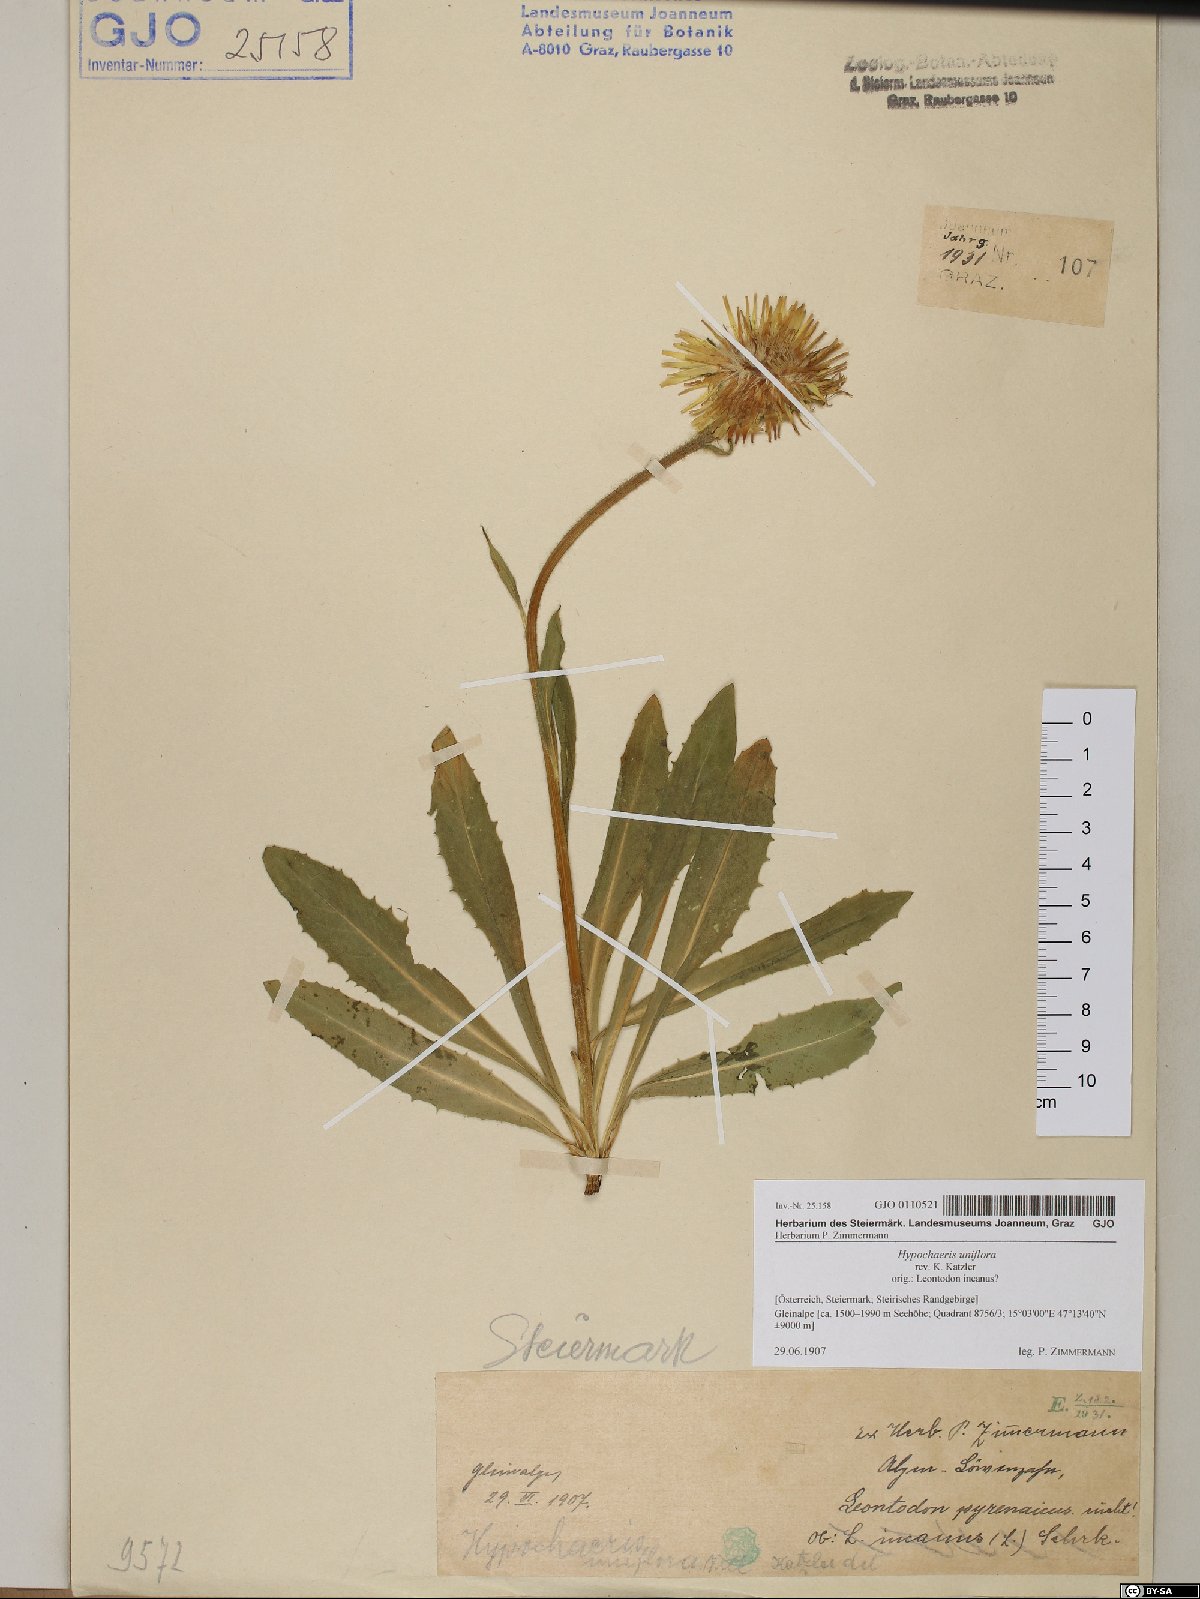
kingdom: Plantae
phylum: Tracheophyta
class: Magnoliopsida
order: Asterales
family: Asteraceae
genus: Trommsdorffia
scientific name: Trommsdorffia uniflora
